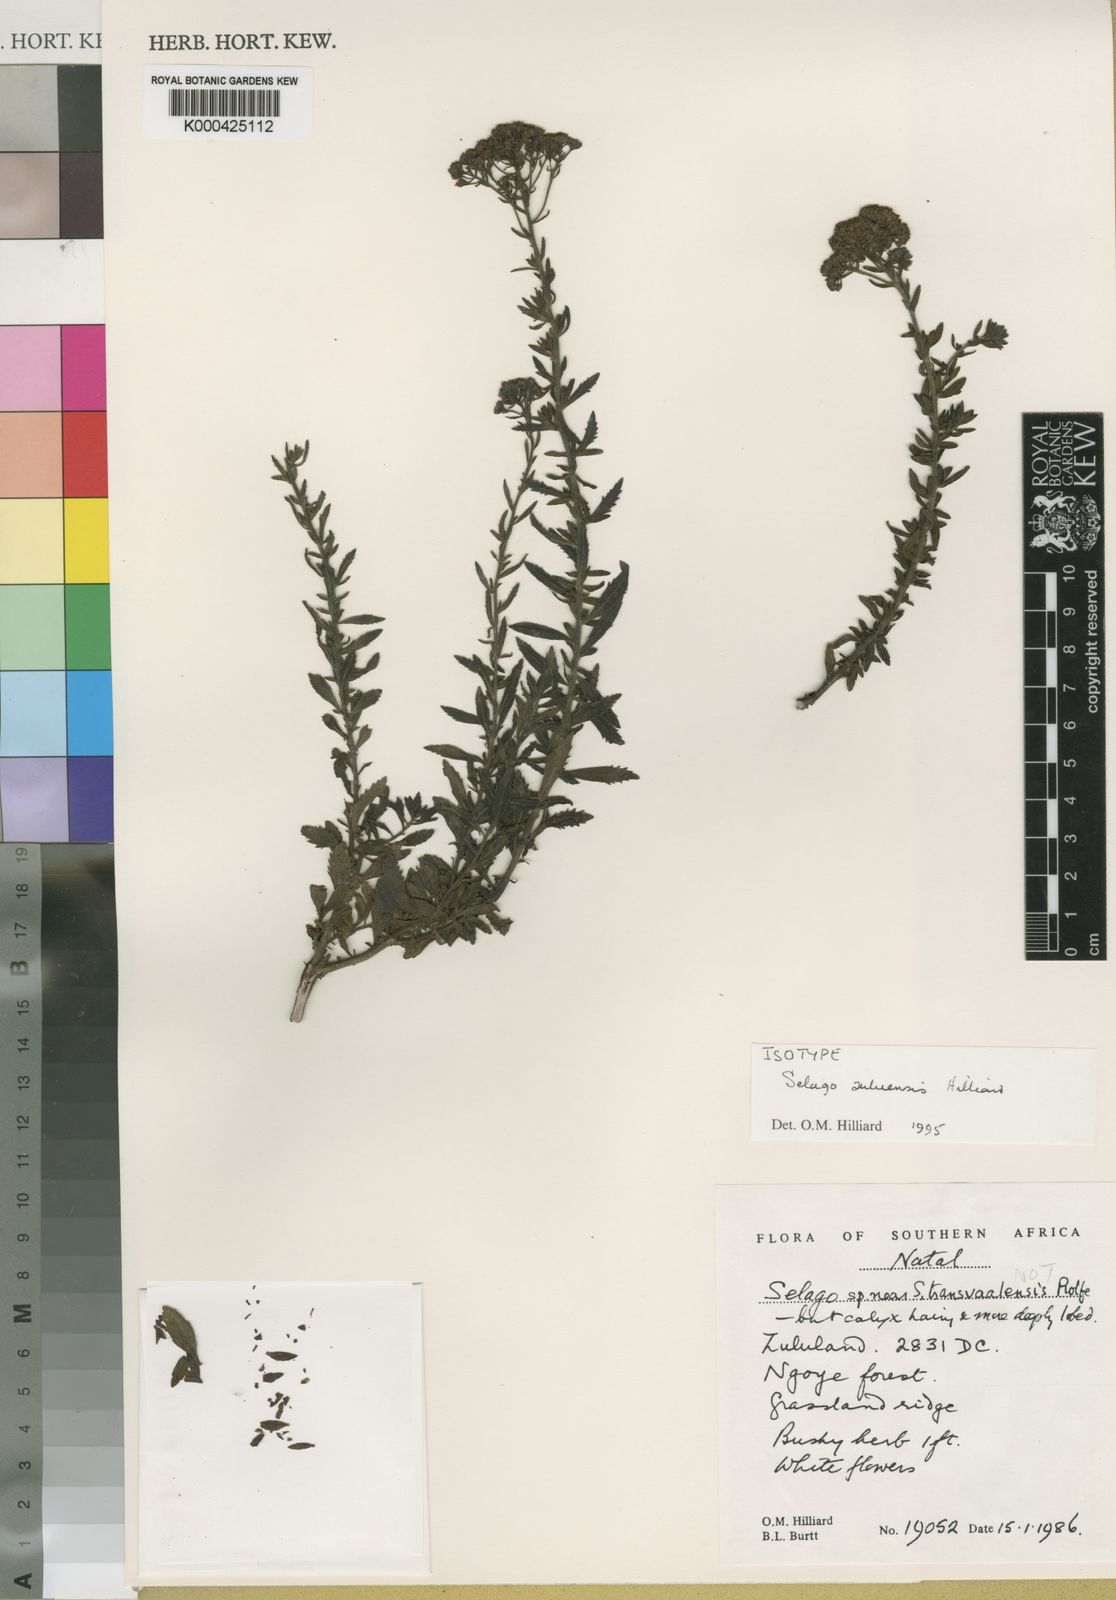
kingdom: Plantae
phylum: Tracheophyta
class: Magnoliopsida
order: Lamiales
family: Scrophulariaceae
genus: Selago
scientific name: Selago zuluensis
